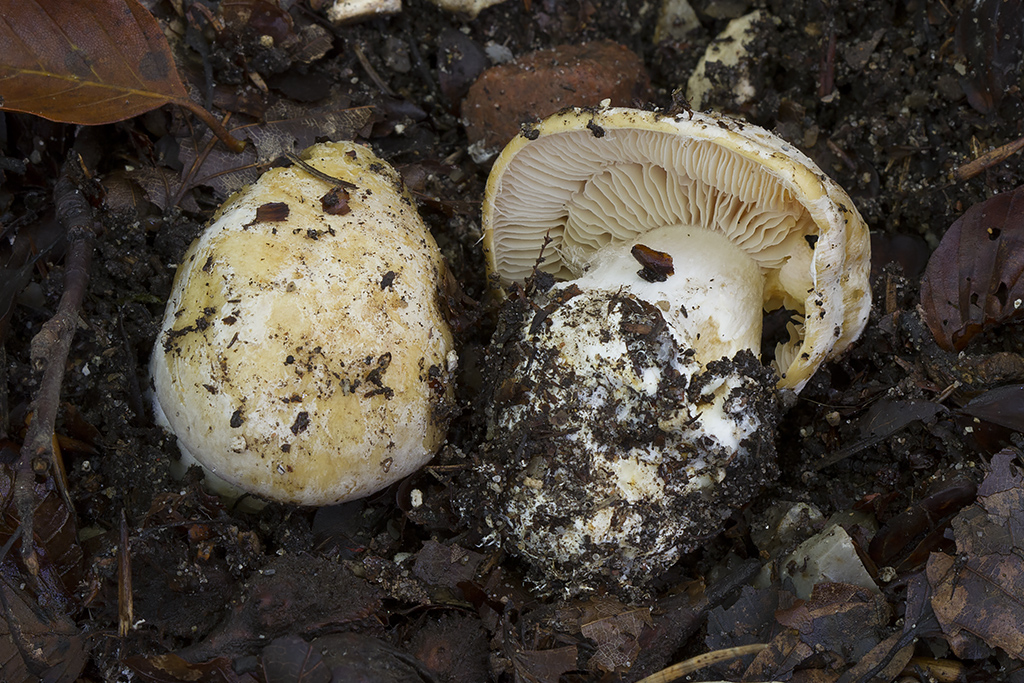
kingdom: Fungi
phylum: Basidiomycota
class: Agaricomycetes
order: Agaricales
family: Cortinariaceae
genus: Cortinarius
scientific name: Cortinarius foetens
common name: stribet slørhat
